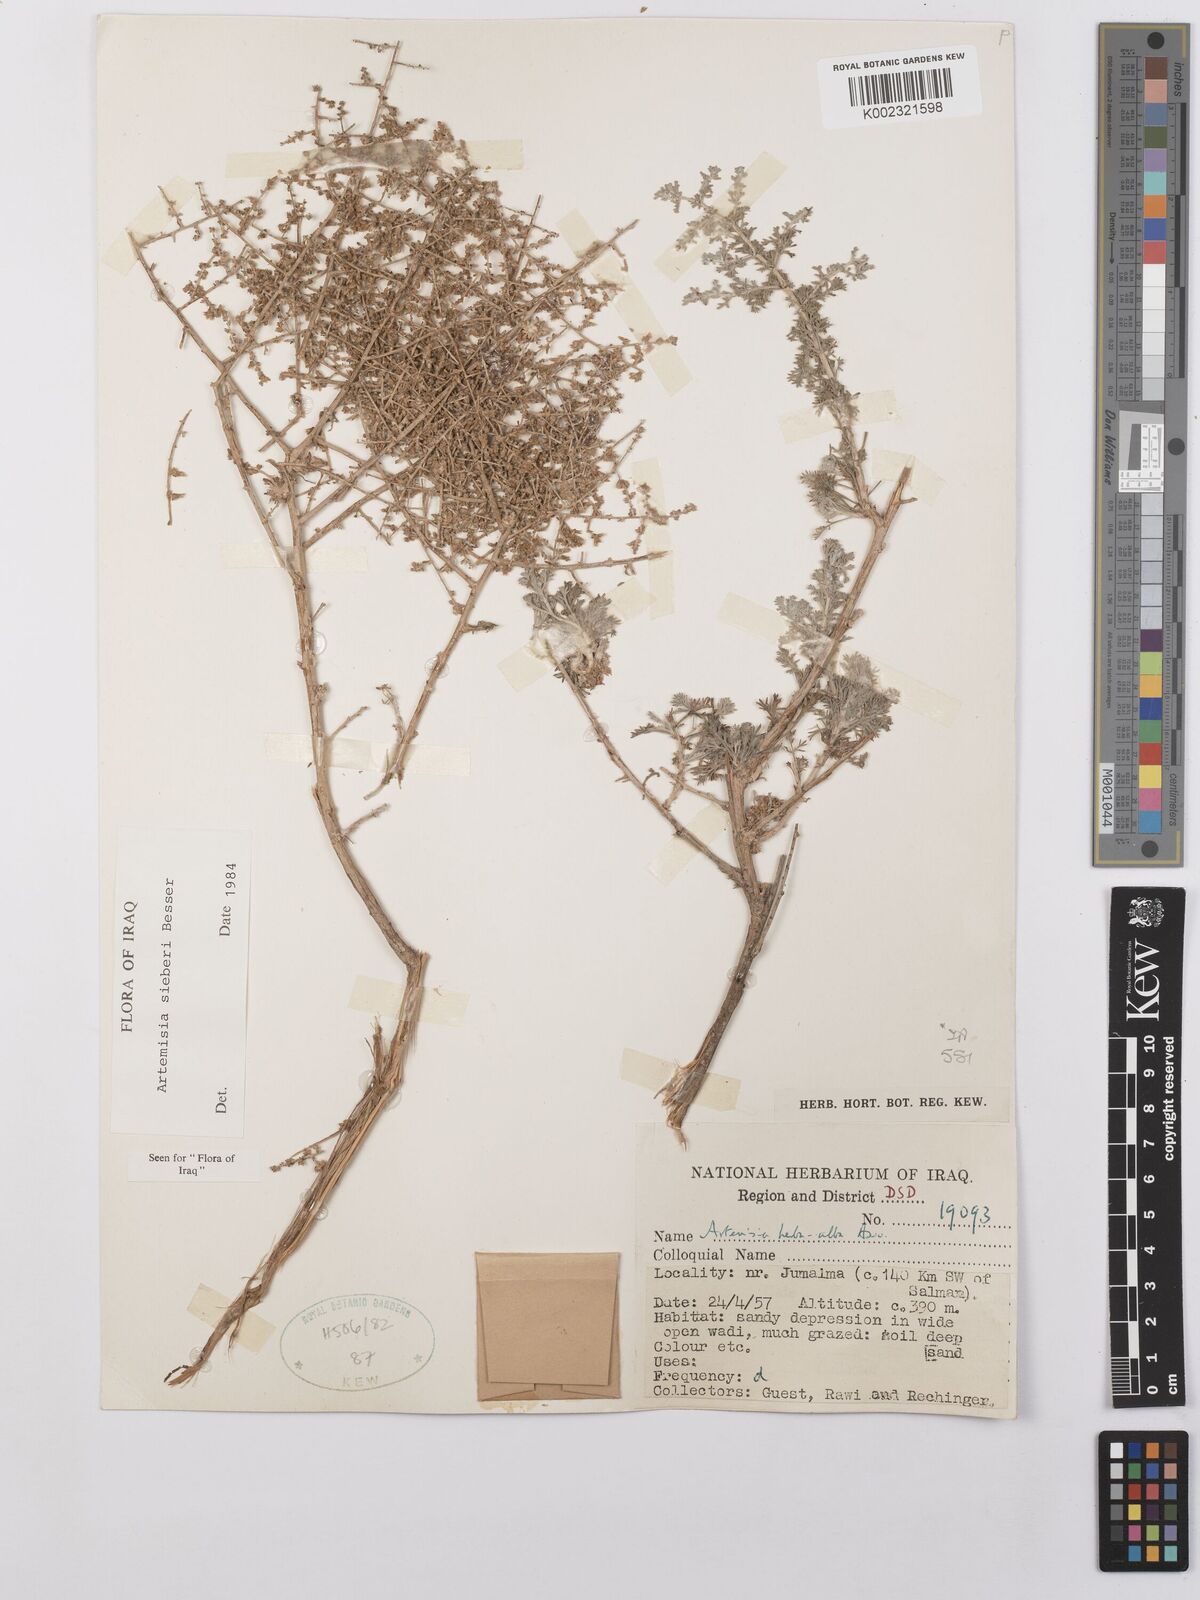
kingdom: Plantae
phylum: Tracheophyta
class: Magnoliopsida
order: Asterales
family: Asteraceae
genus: Artemisia
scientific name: Artemisia sieberi
